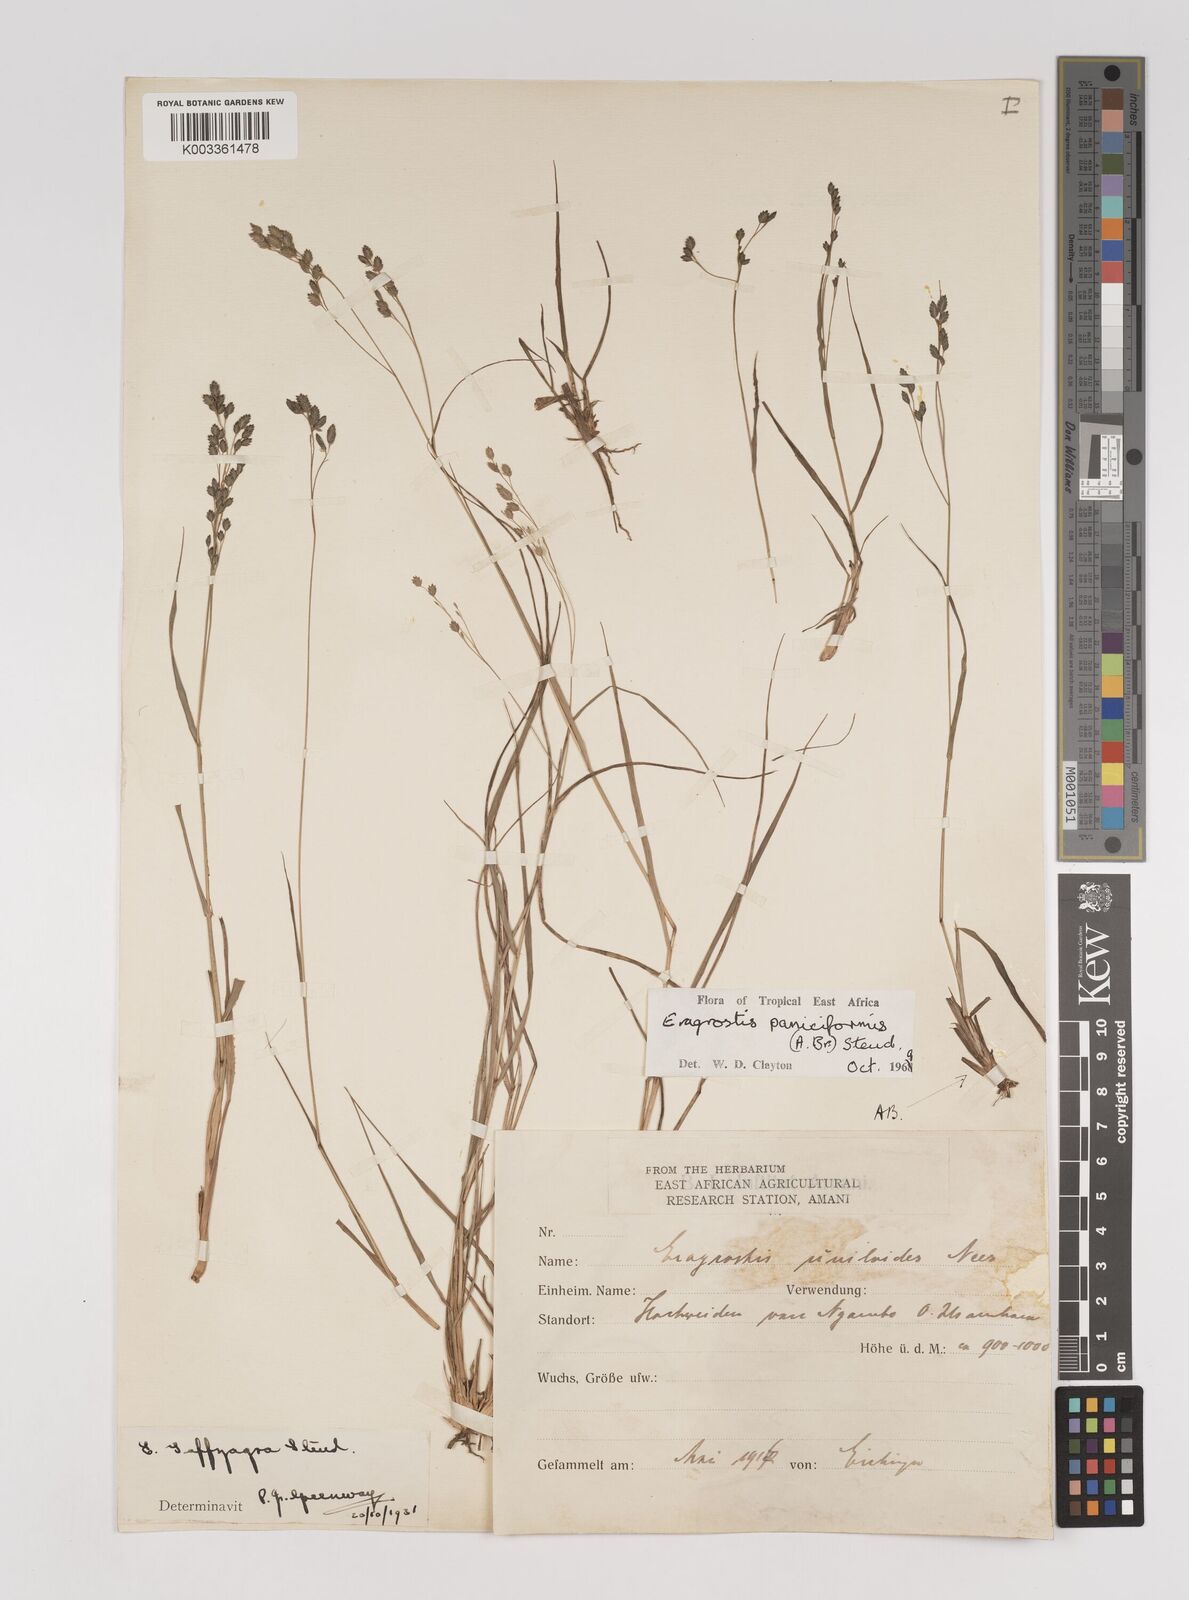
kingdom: Plantae
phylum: Tracheophyta
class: Liliopsida
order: Poales
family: Poaceae
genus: Eragrostis
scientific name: Eragrostis paniciformis
